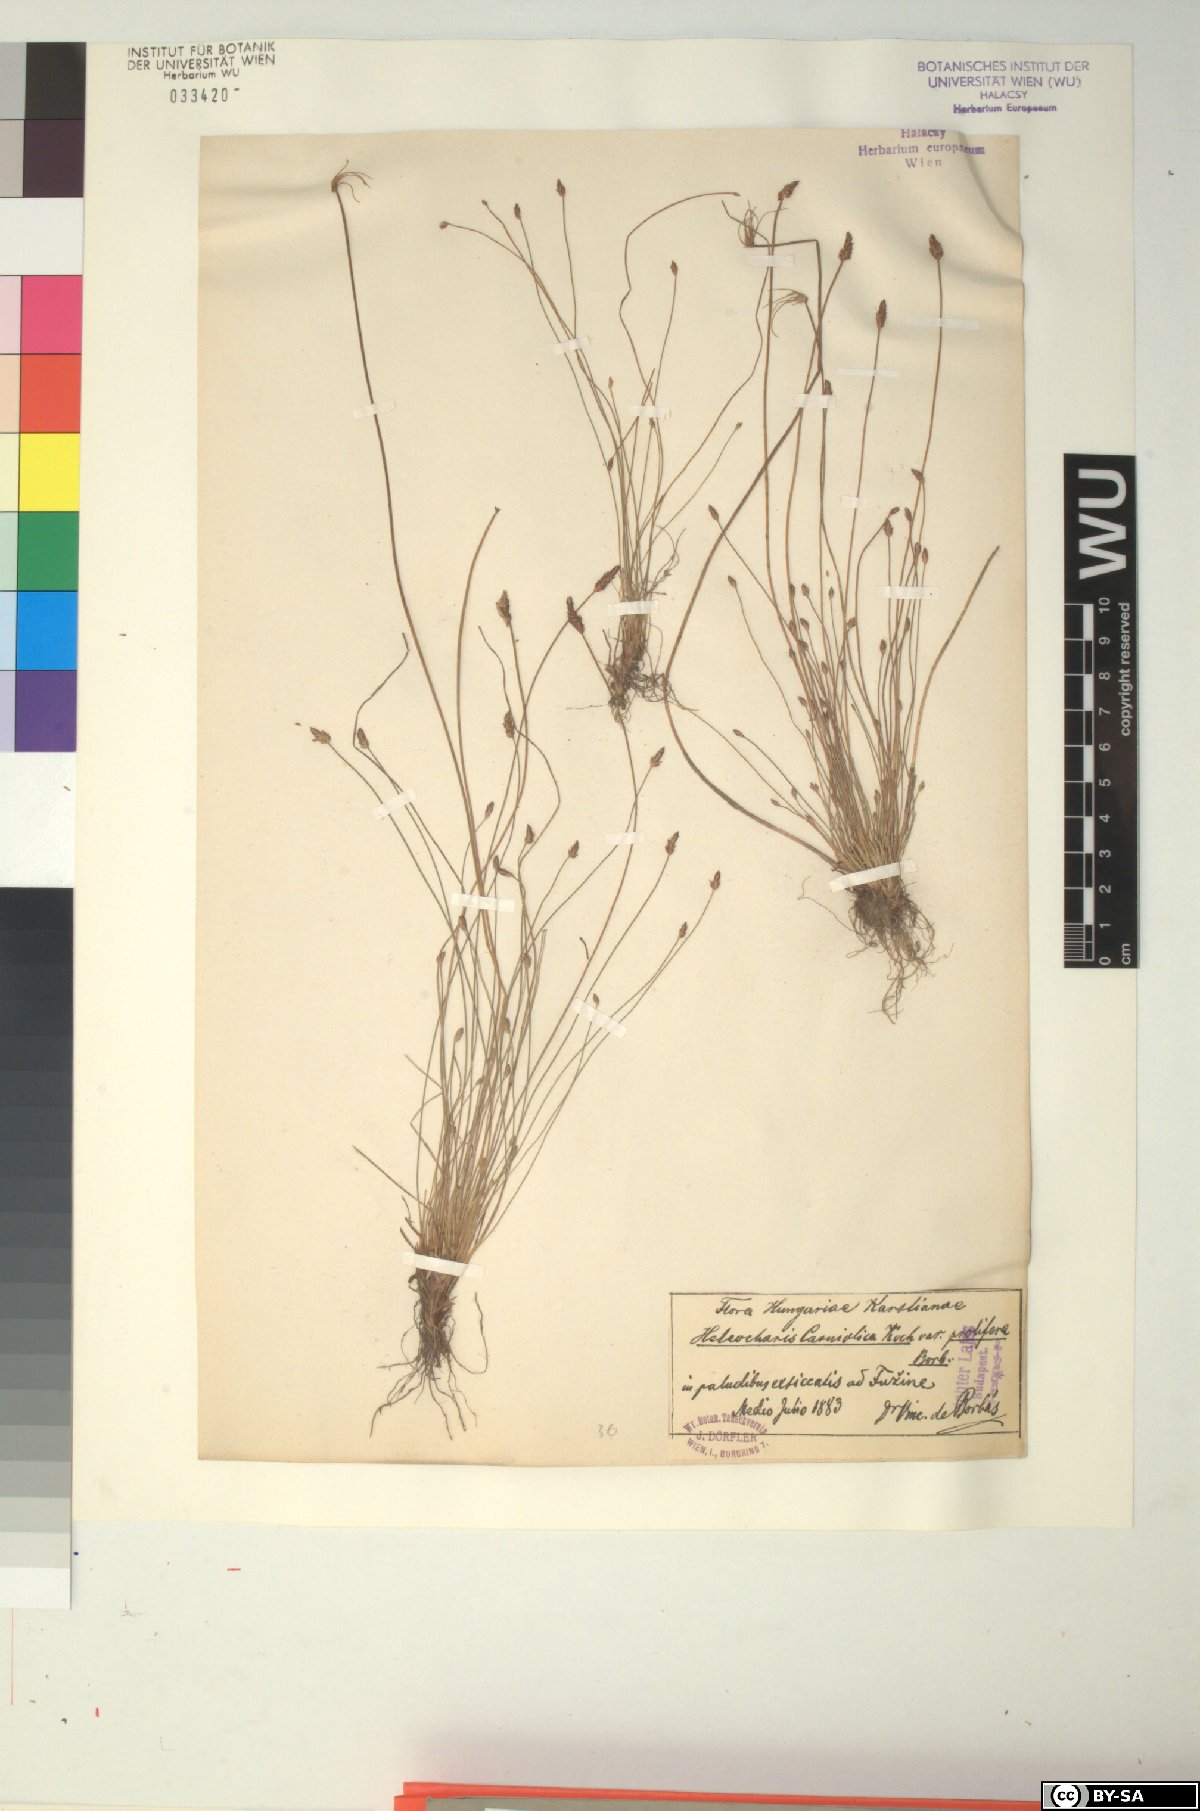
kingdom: Plantae
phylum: Tracheophyta
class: Liliopsida
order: Poales
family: Cyperaceae
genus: Eleocharis
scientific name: Eleocharis carniolica
